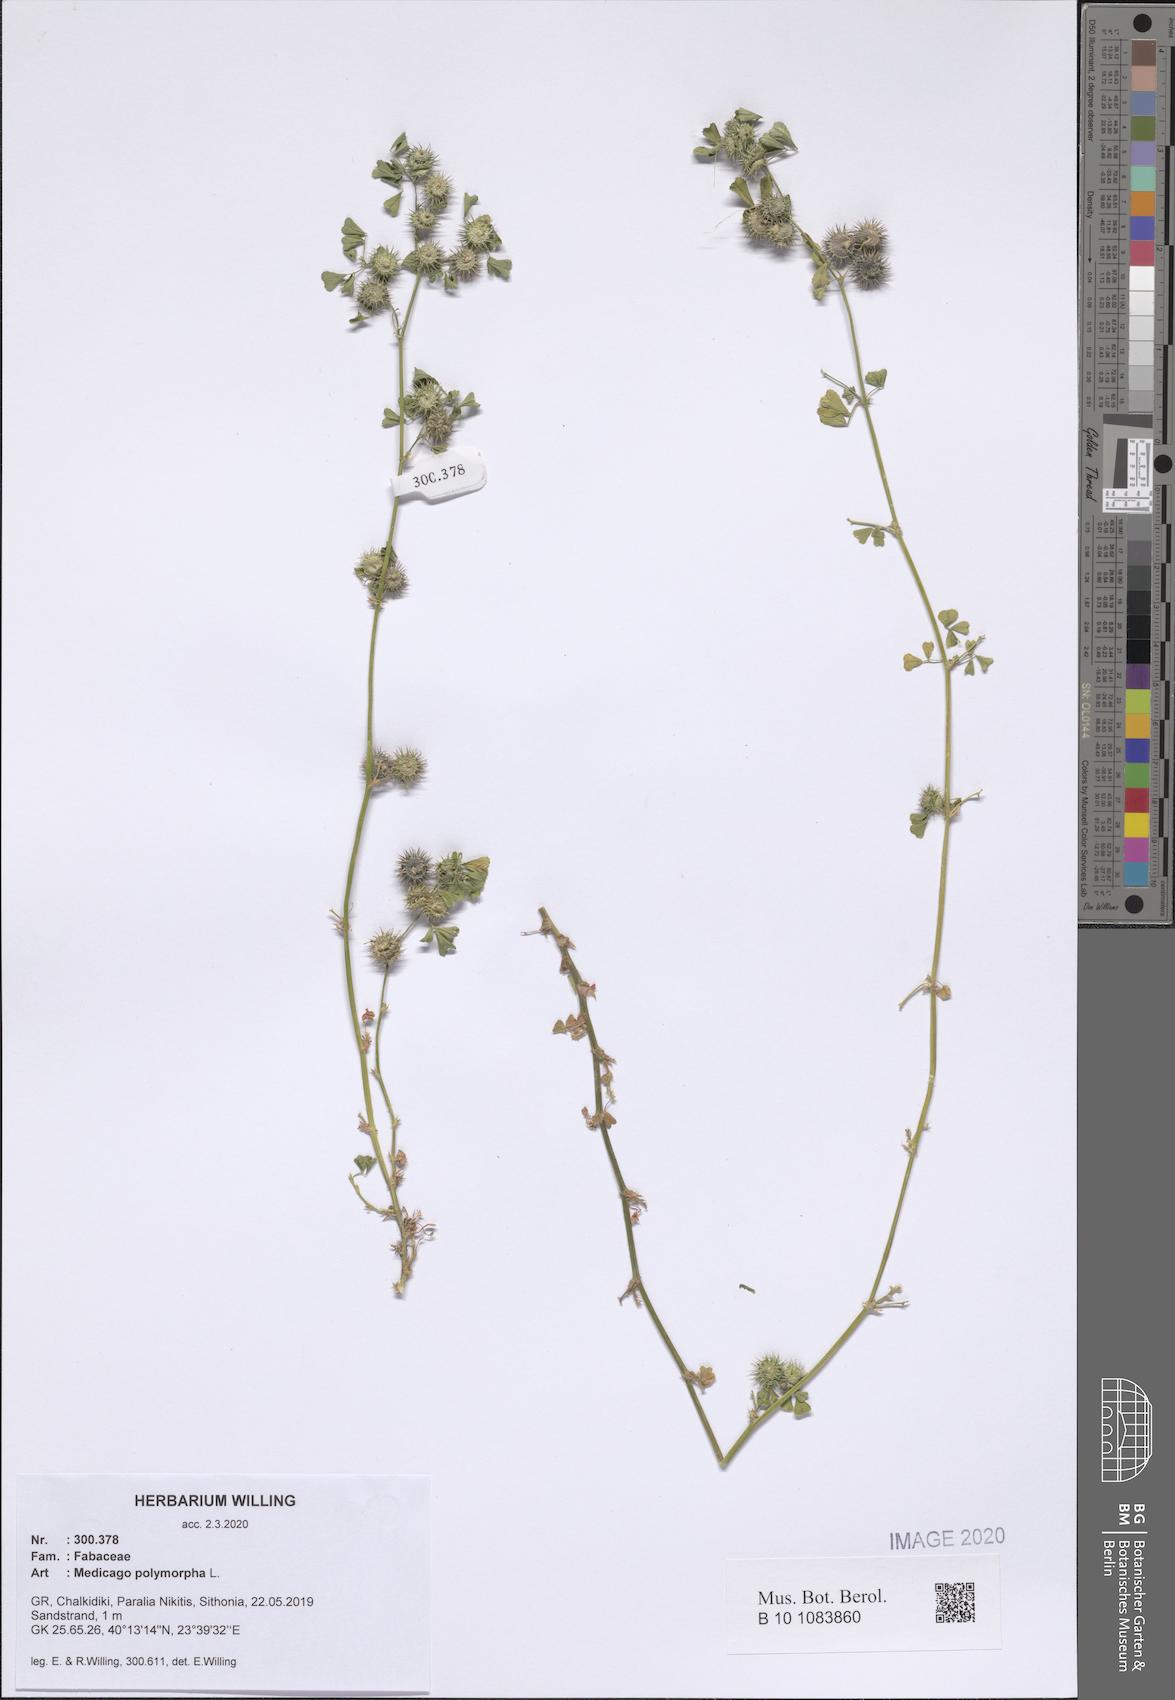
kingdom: Plantae
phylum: Tracheophyta
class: Magnoliopsida
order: Fabales
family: Fabaceae
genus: Medicago
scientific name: Medicago polymorpha
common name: Burclover
